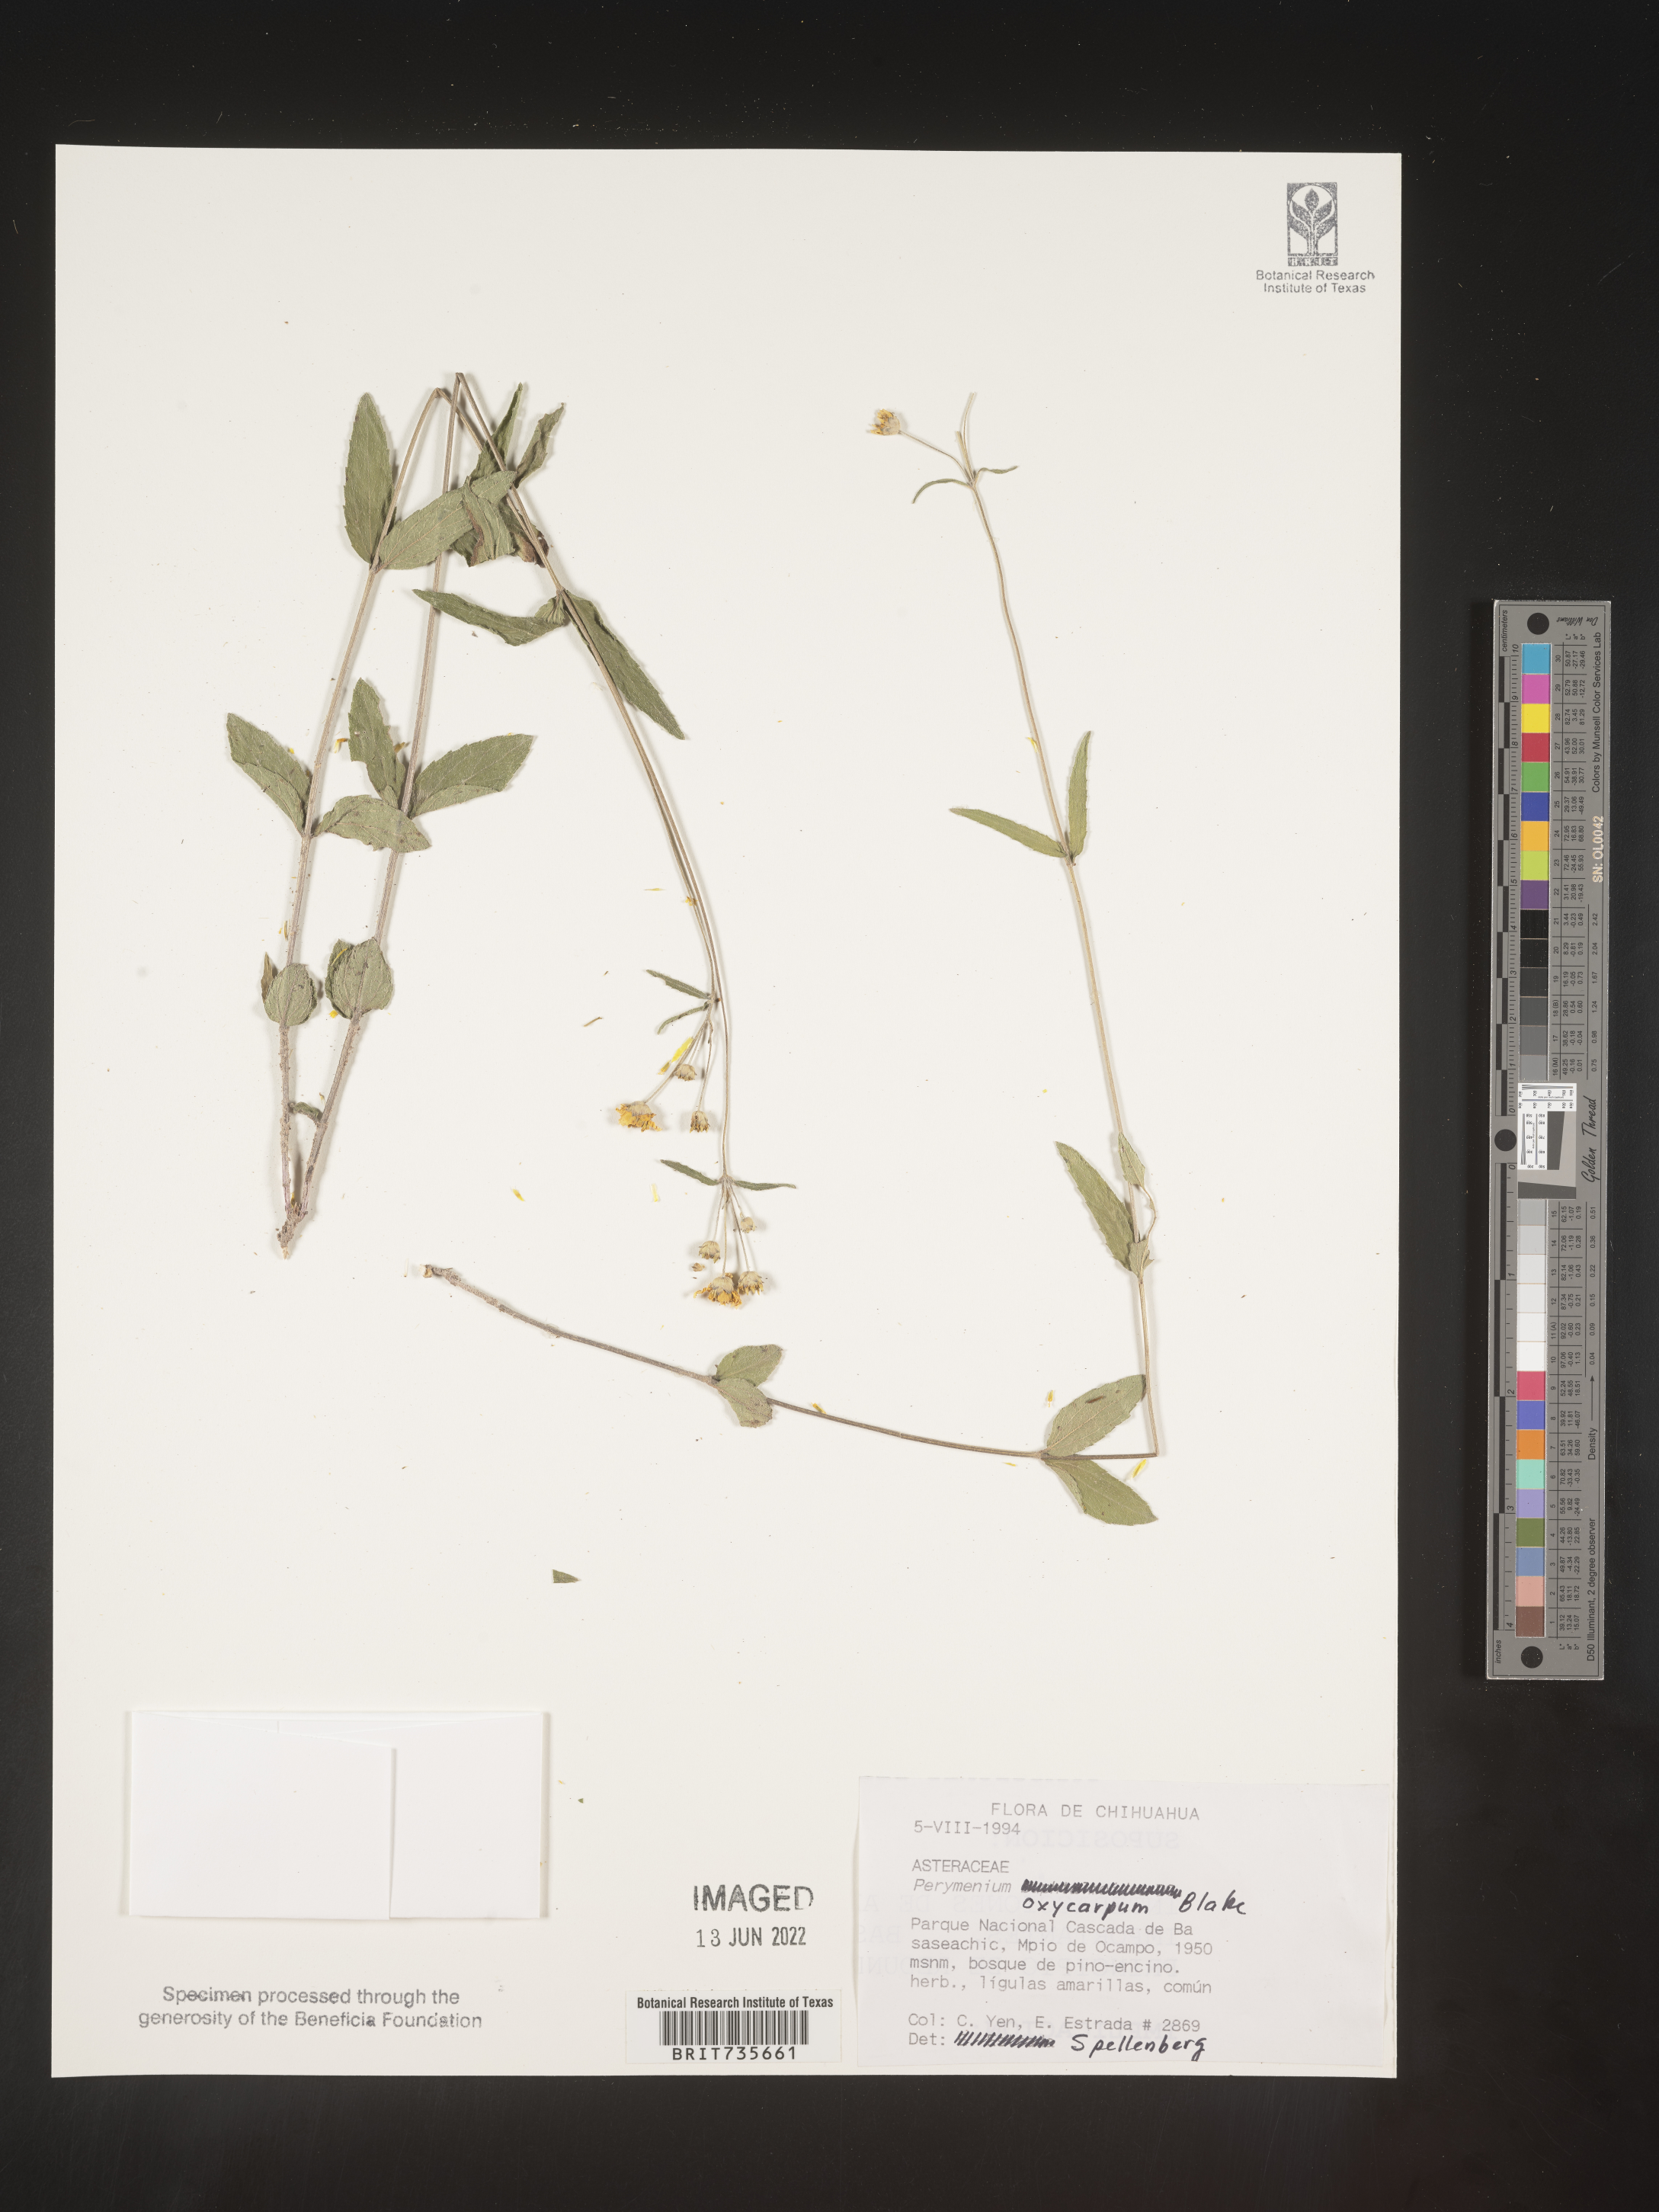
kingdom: Plantae
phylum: Tracheophyta
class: Magnoliopsida
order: Asterales
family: Asteraceae
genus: Perymenium
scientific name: Perymenium
